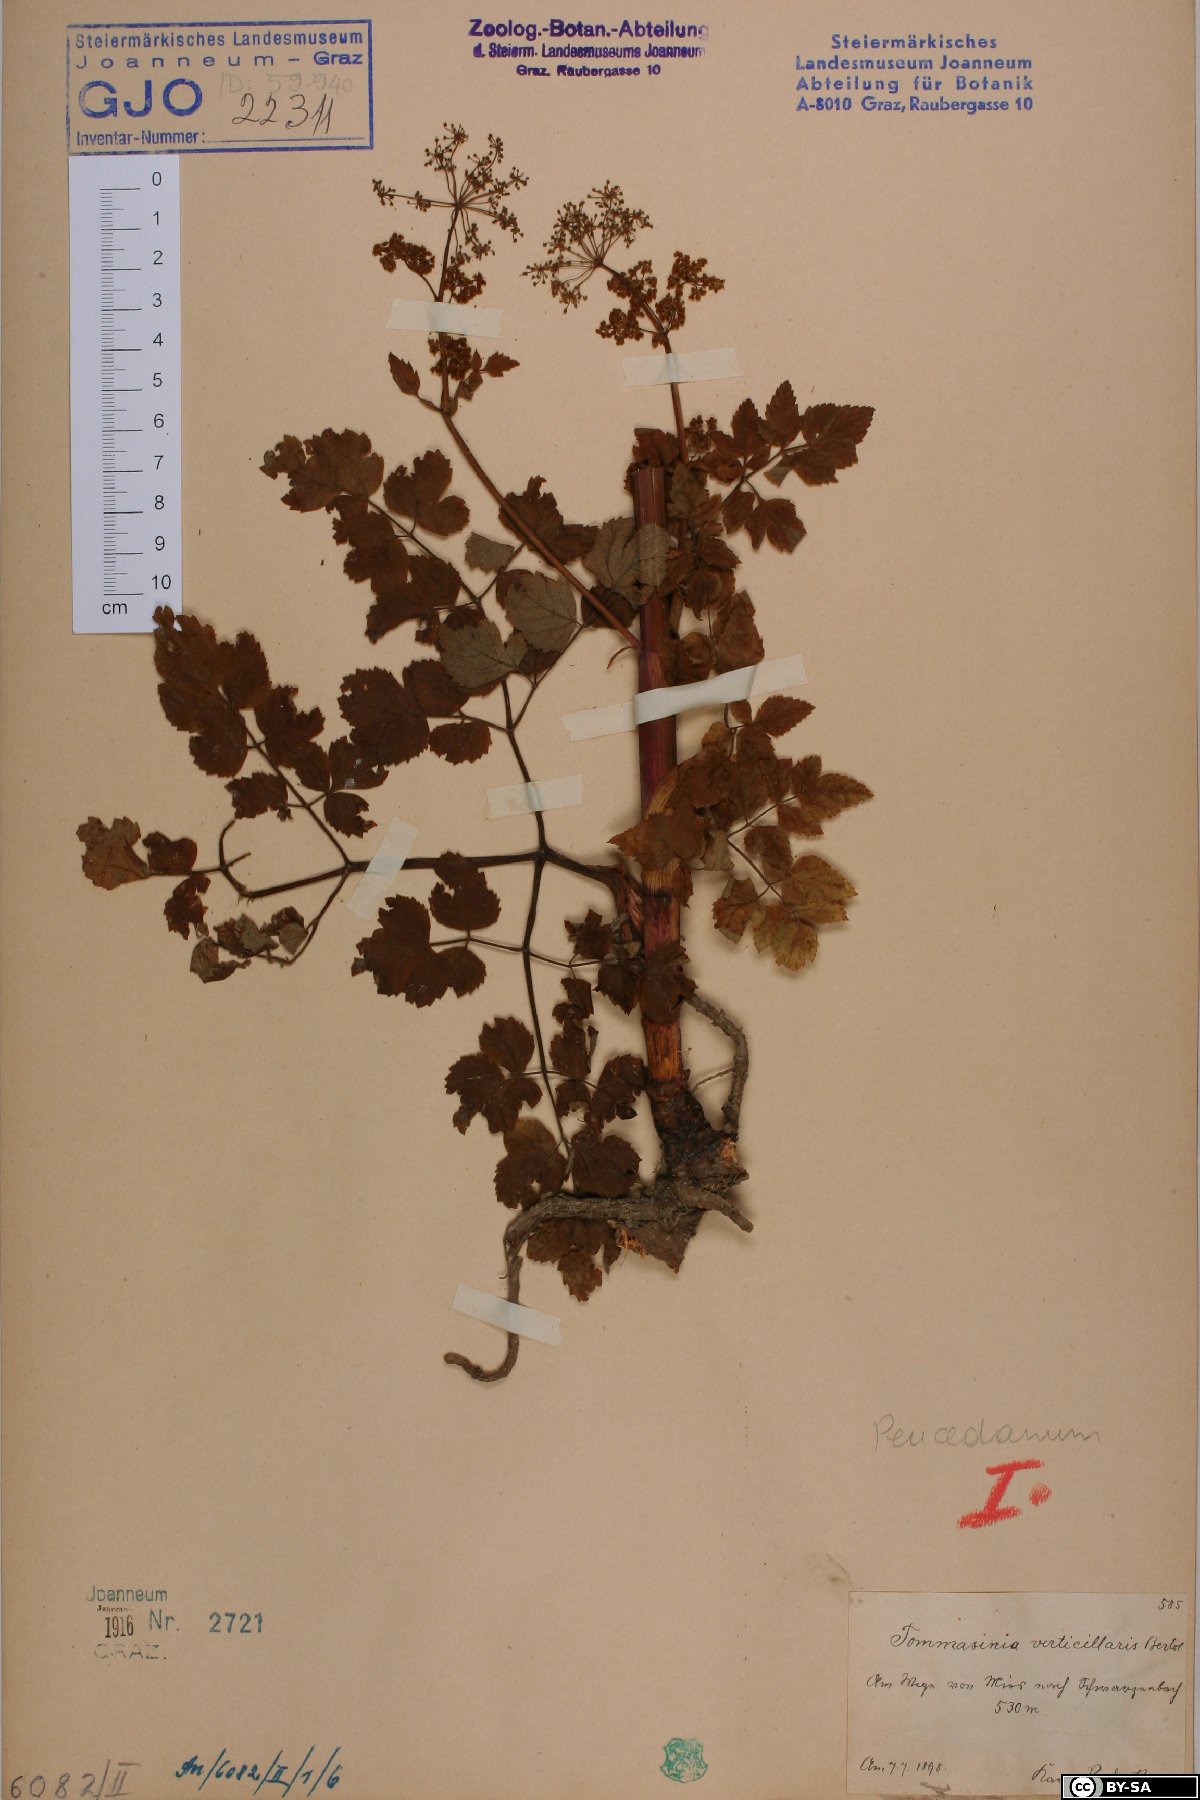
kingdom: Plantae
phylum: Tracheophyta
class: Magnoliopsida
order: Apiales
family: Apiaceae
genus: Tommasinia
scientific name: Tommasinia altissima
